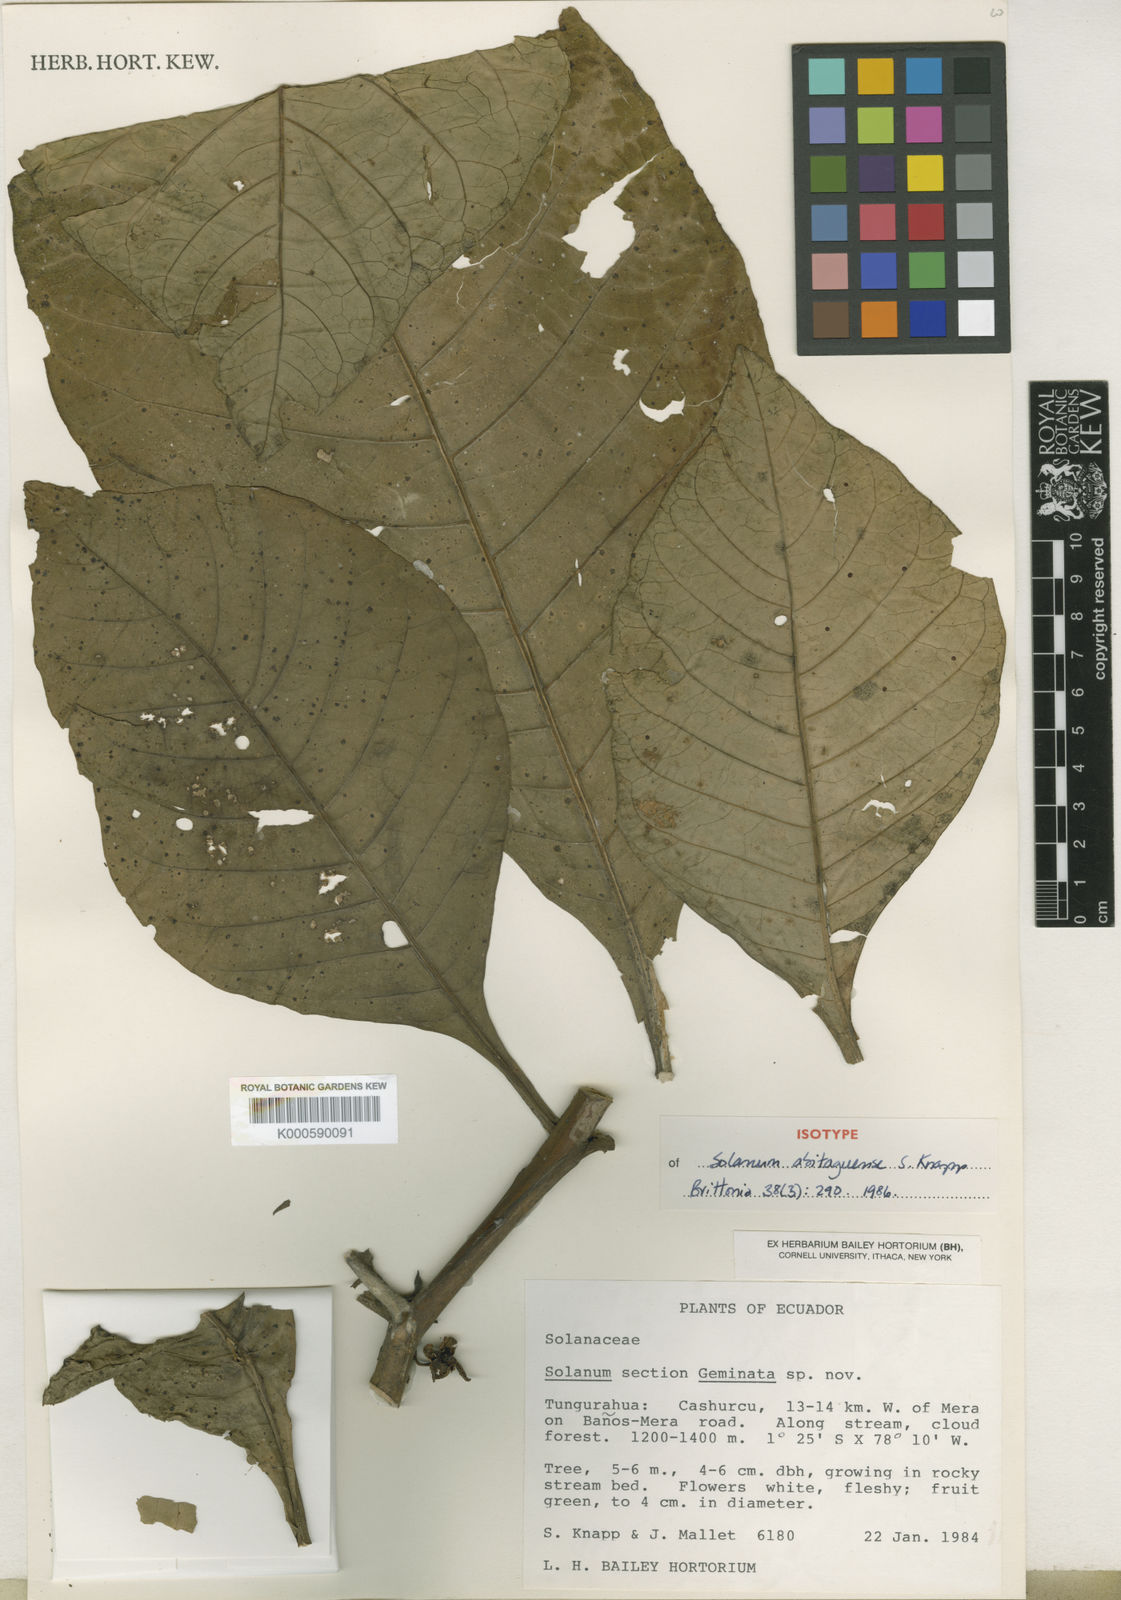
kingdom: Plantae
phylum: Tracheophyta
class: Magnoliopsida
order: Solanales
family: Solanaceae
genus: Solanum
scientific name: Solanum abitaguense
